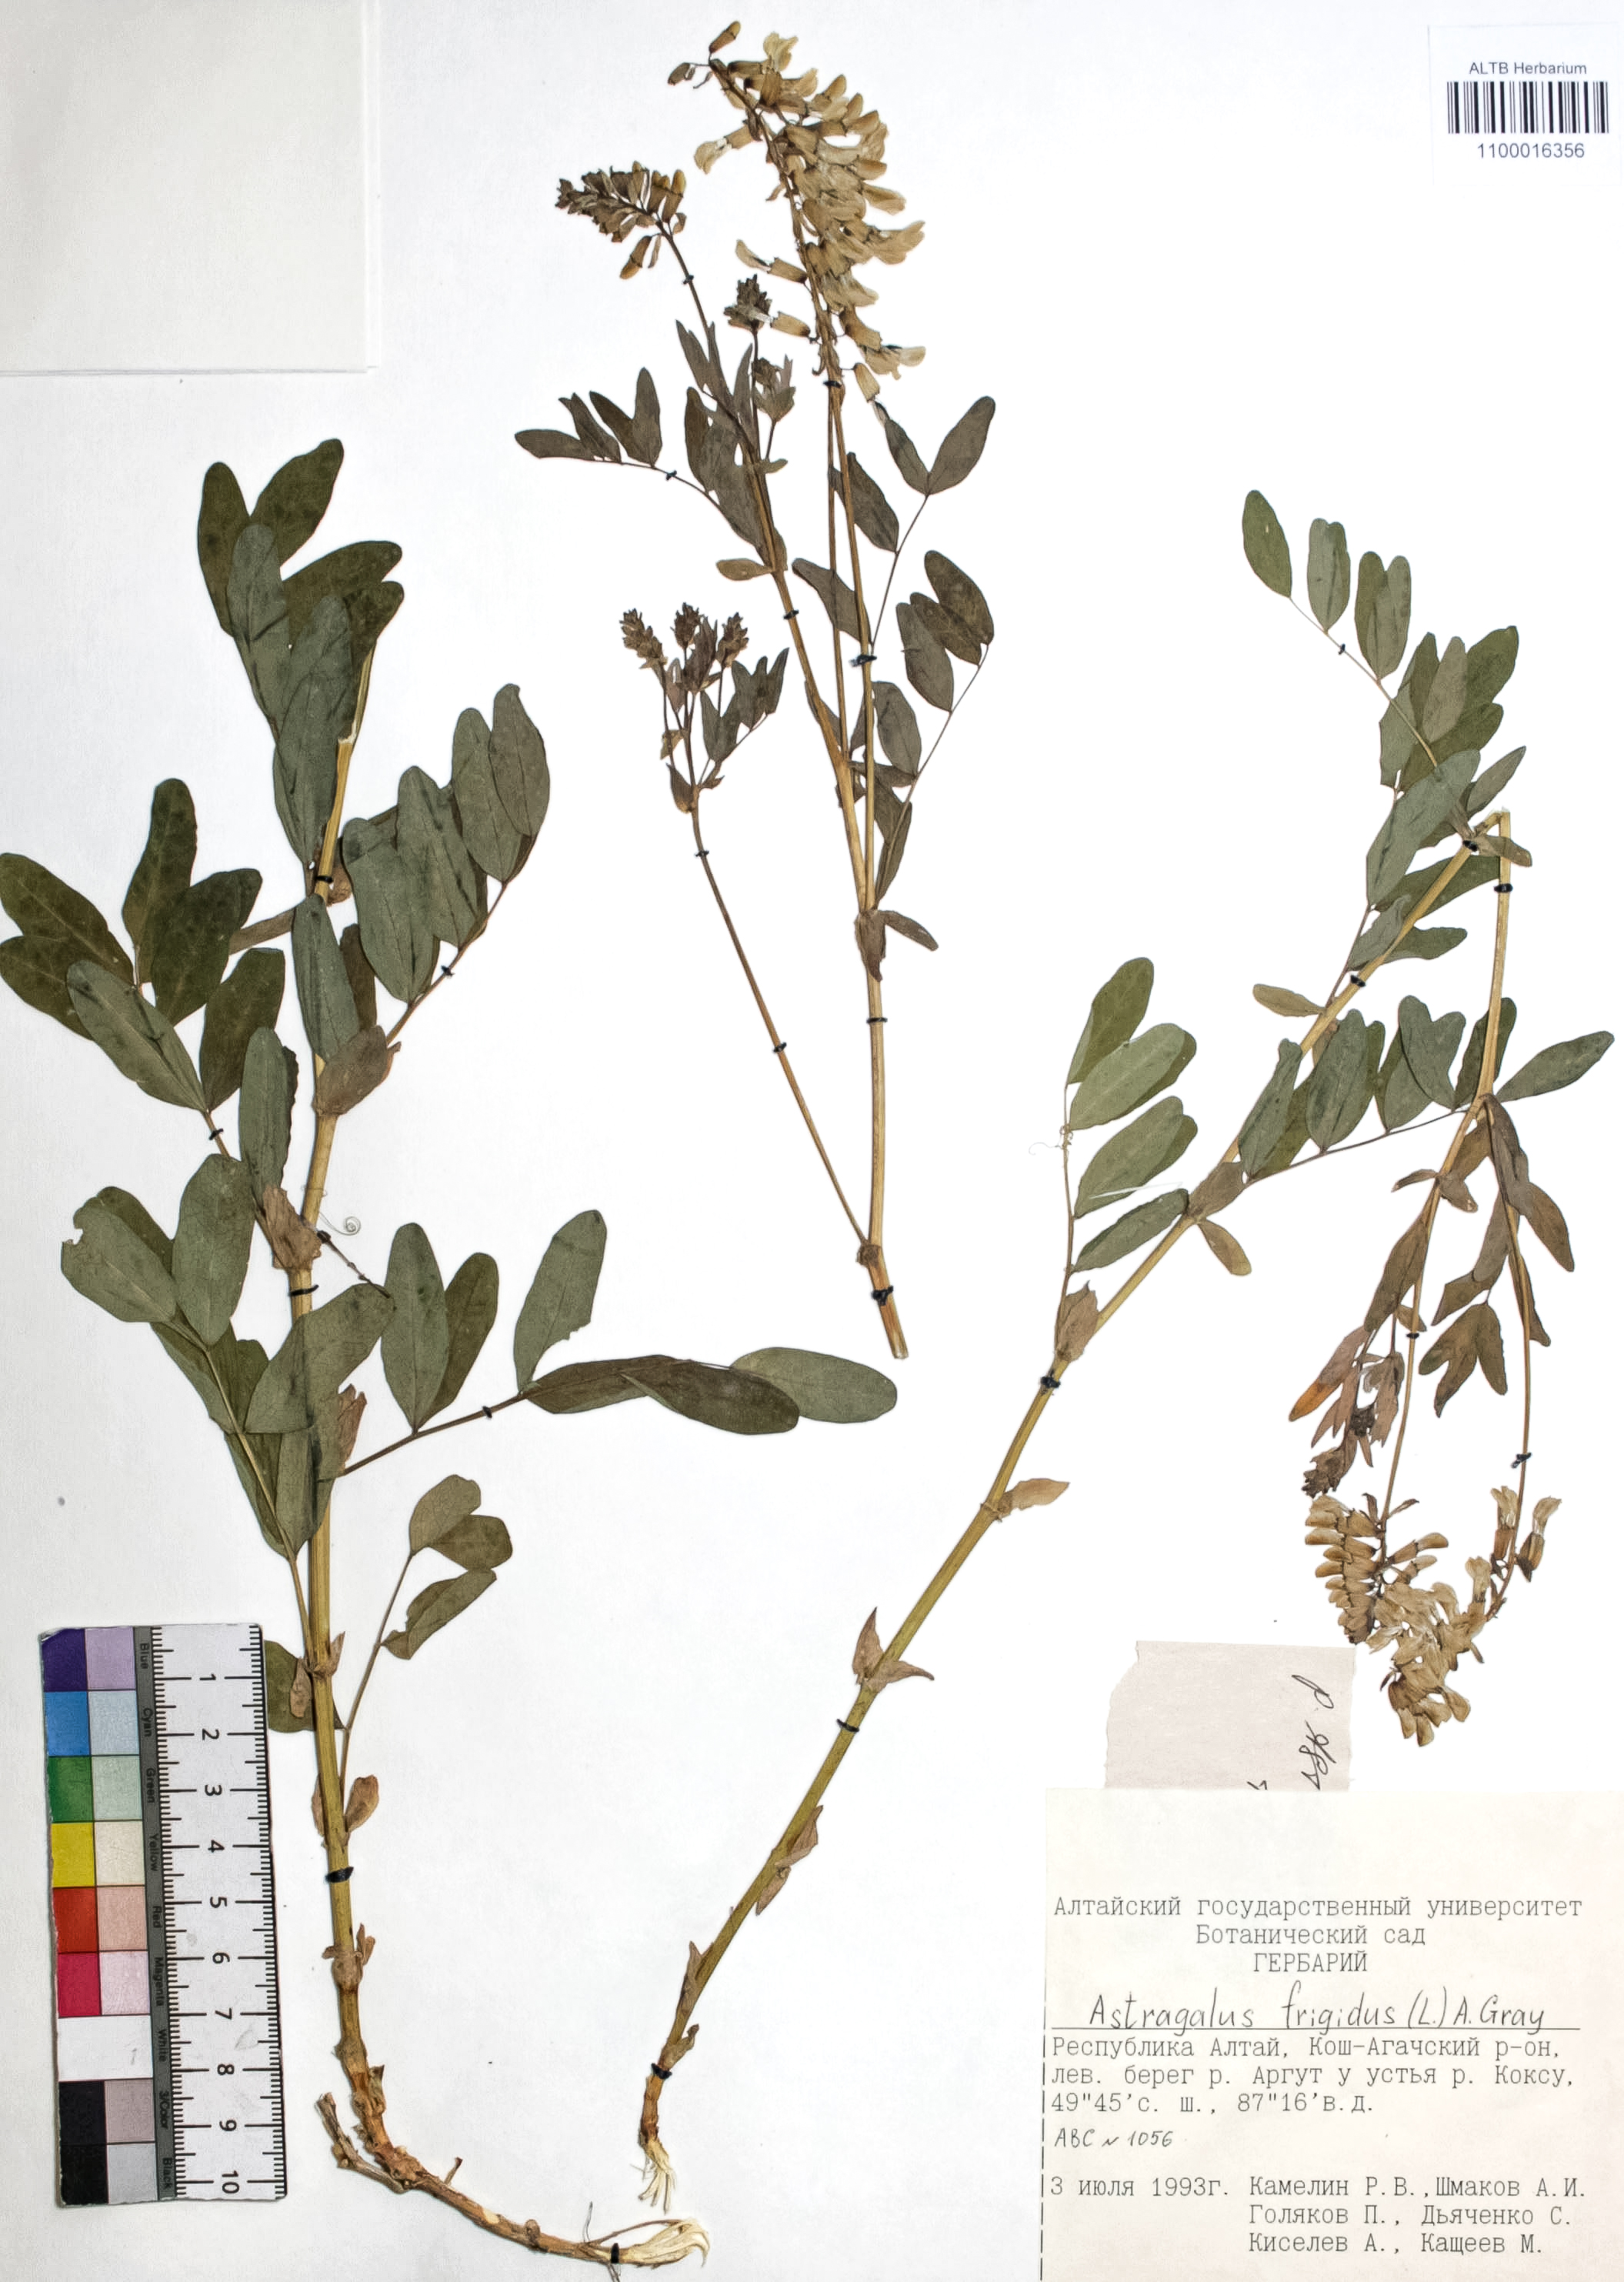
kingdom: Plantae
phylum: Tracheophyta
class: Magnoliopsida
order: Fabales
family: Fabaceae
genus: Astragalus
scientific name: Astragalus frigidus
